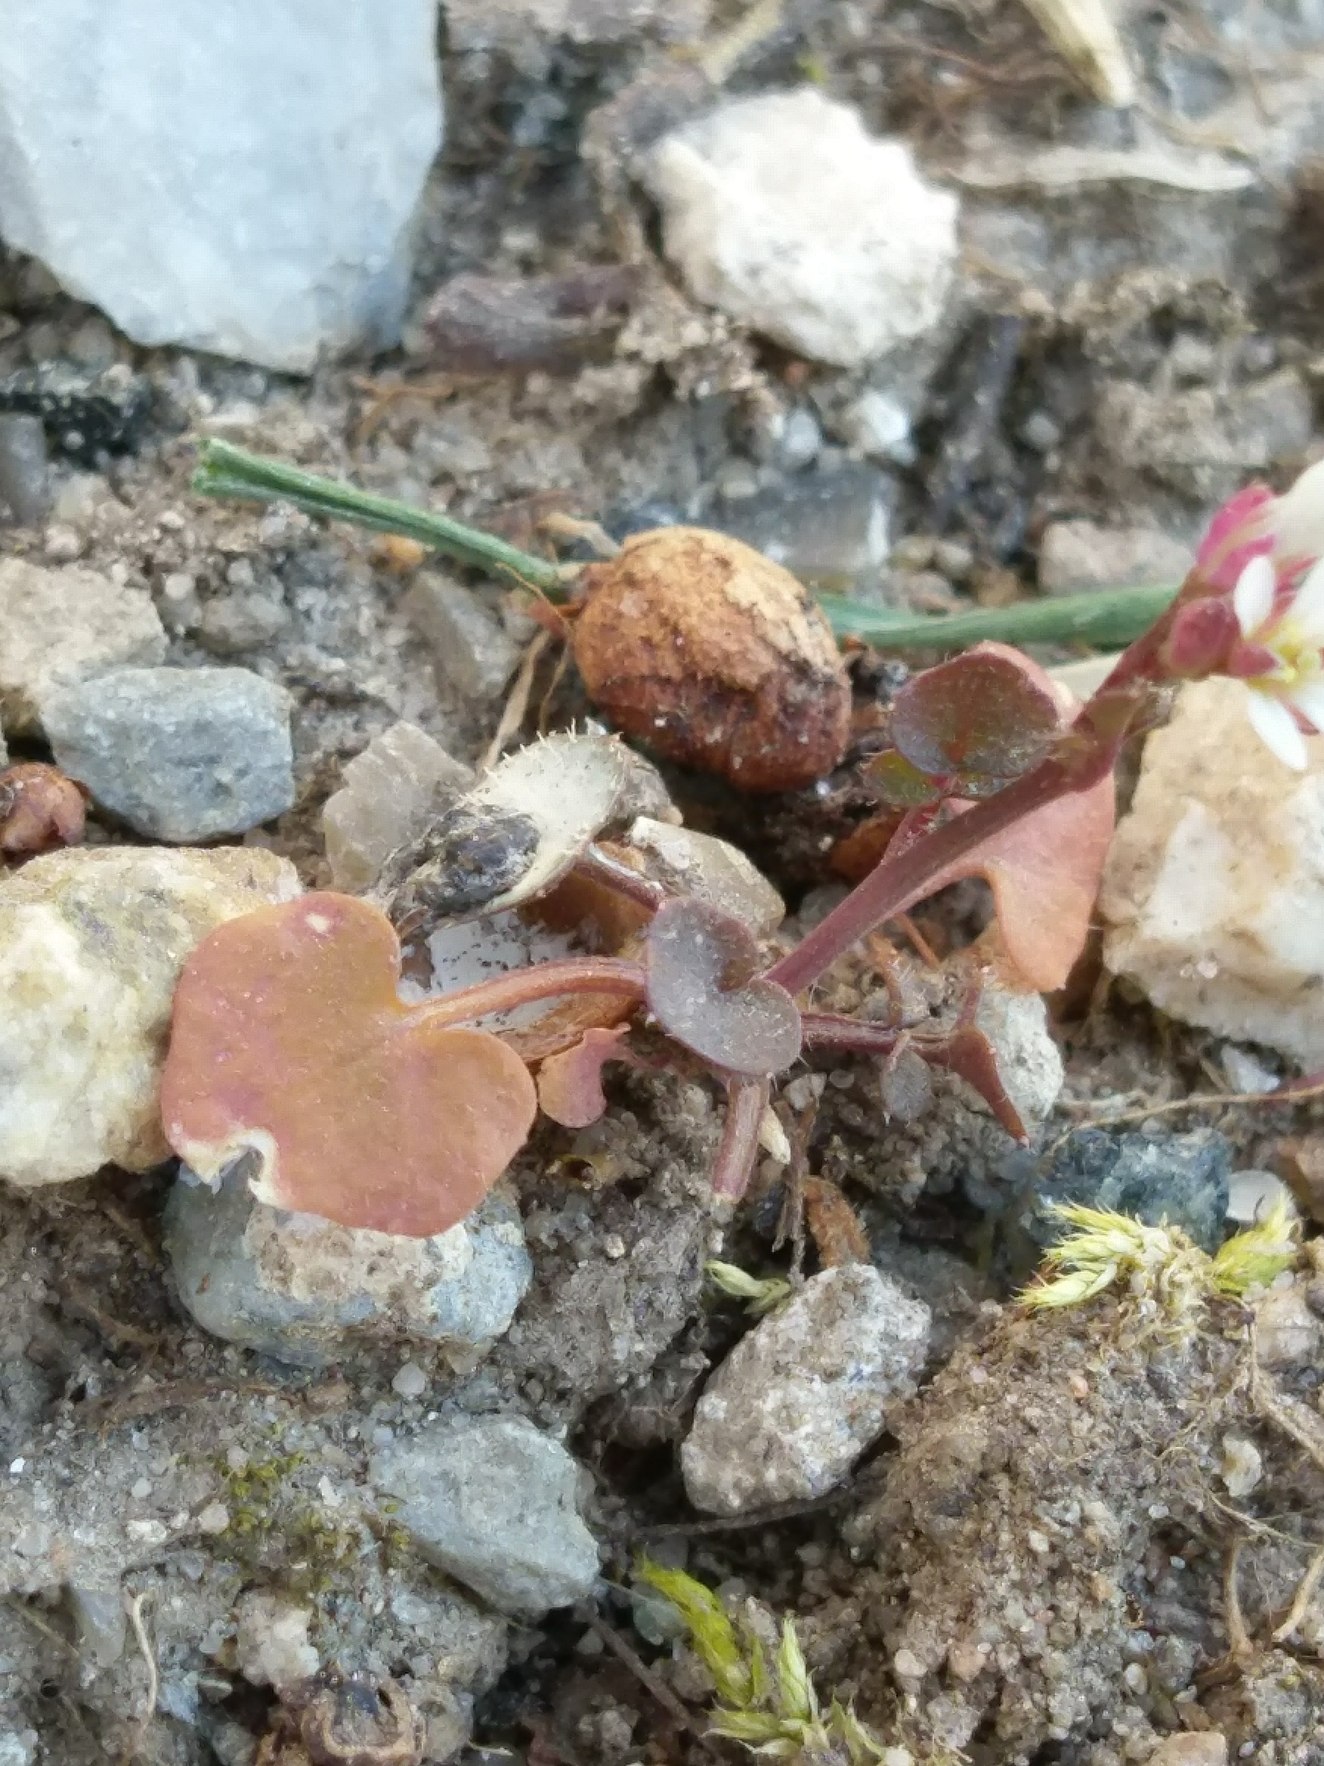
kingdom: Plantae
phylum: Tracheophyta
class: Magnoliopsida
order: Brassicales
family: Brassicaceae
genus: Cardamine
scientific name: Cardamine hirsuta
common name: Roset-springklap
